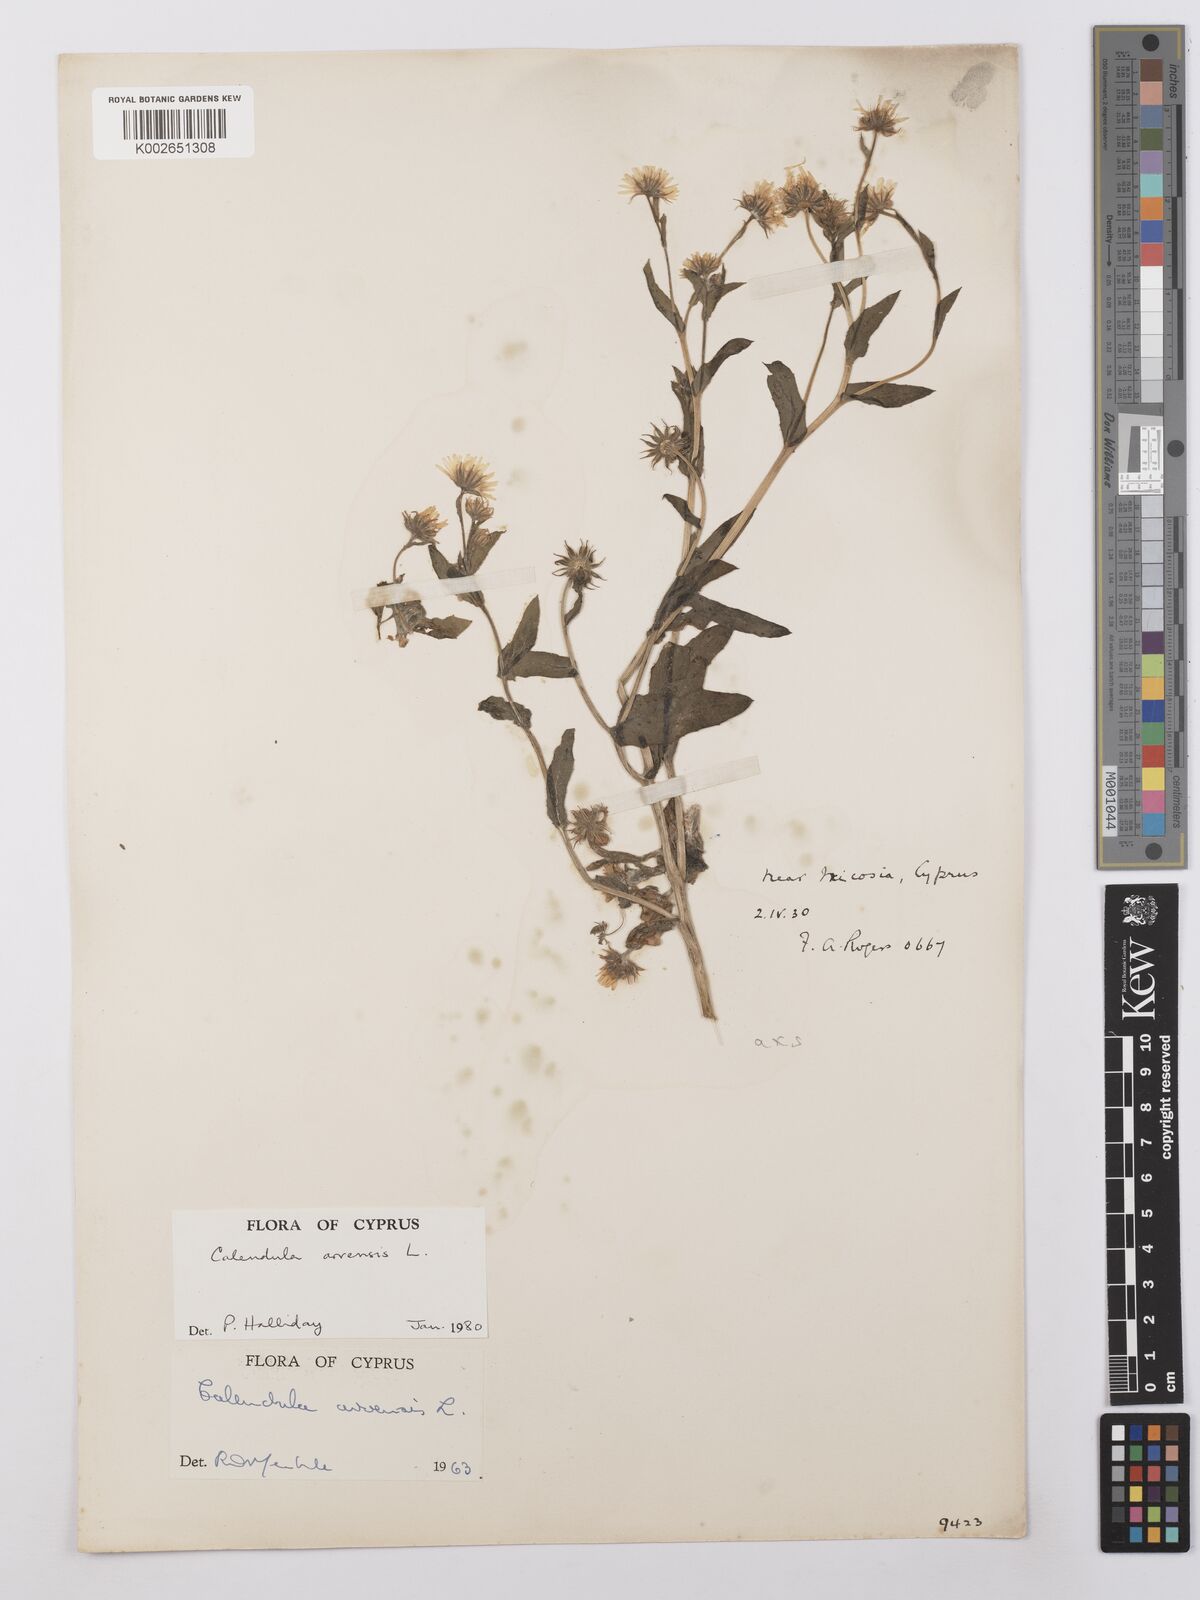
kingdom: Plantae
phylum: Tracheophyta
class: Magnoliopsida
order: Asterales
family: Asteraceae
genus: Calendula
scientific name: Calendula arvensis
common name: Field marigold
